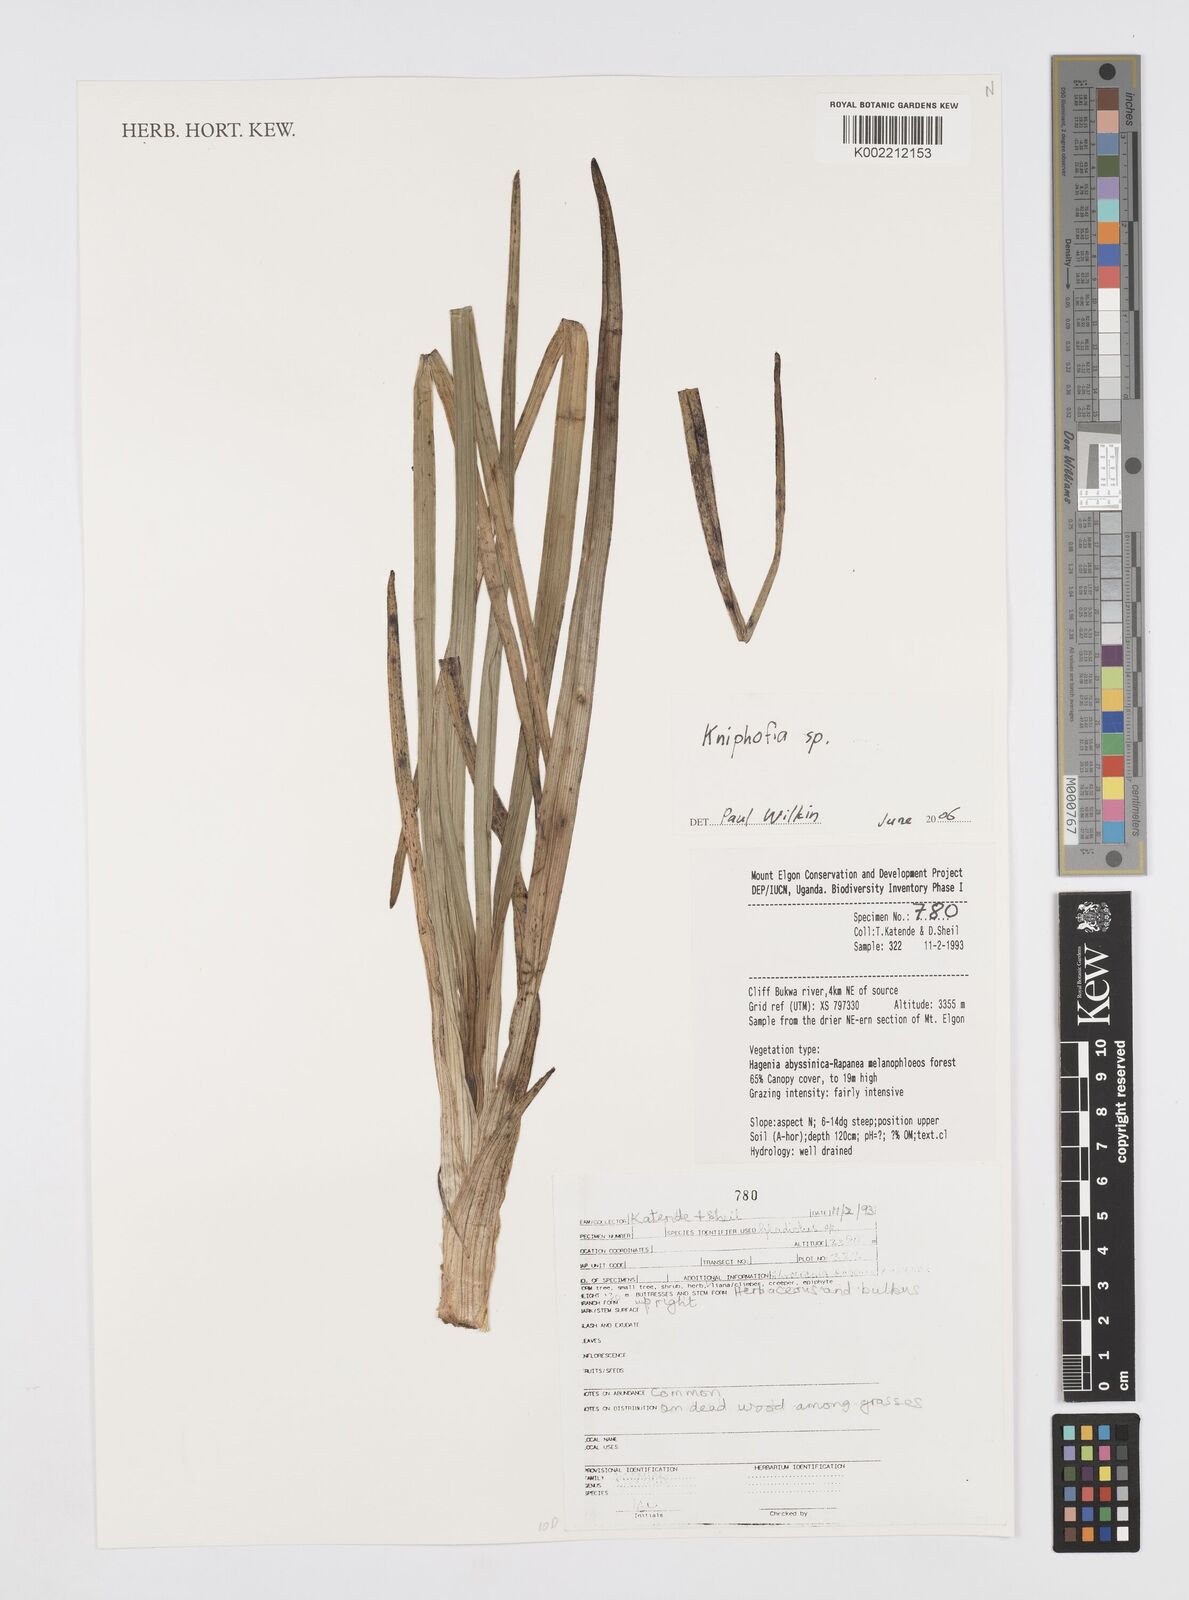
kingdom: Plantae
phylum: Tracheophyta
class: Liliopsida
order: Asparagales
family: Asphodelaceae
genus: Kniphofia
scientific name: Kniphofia
